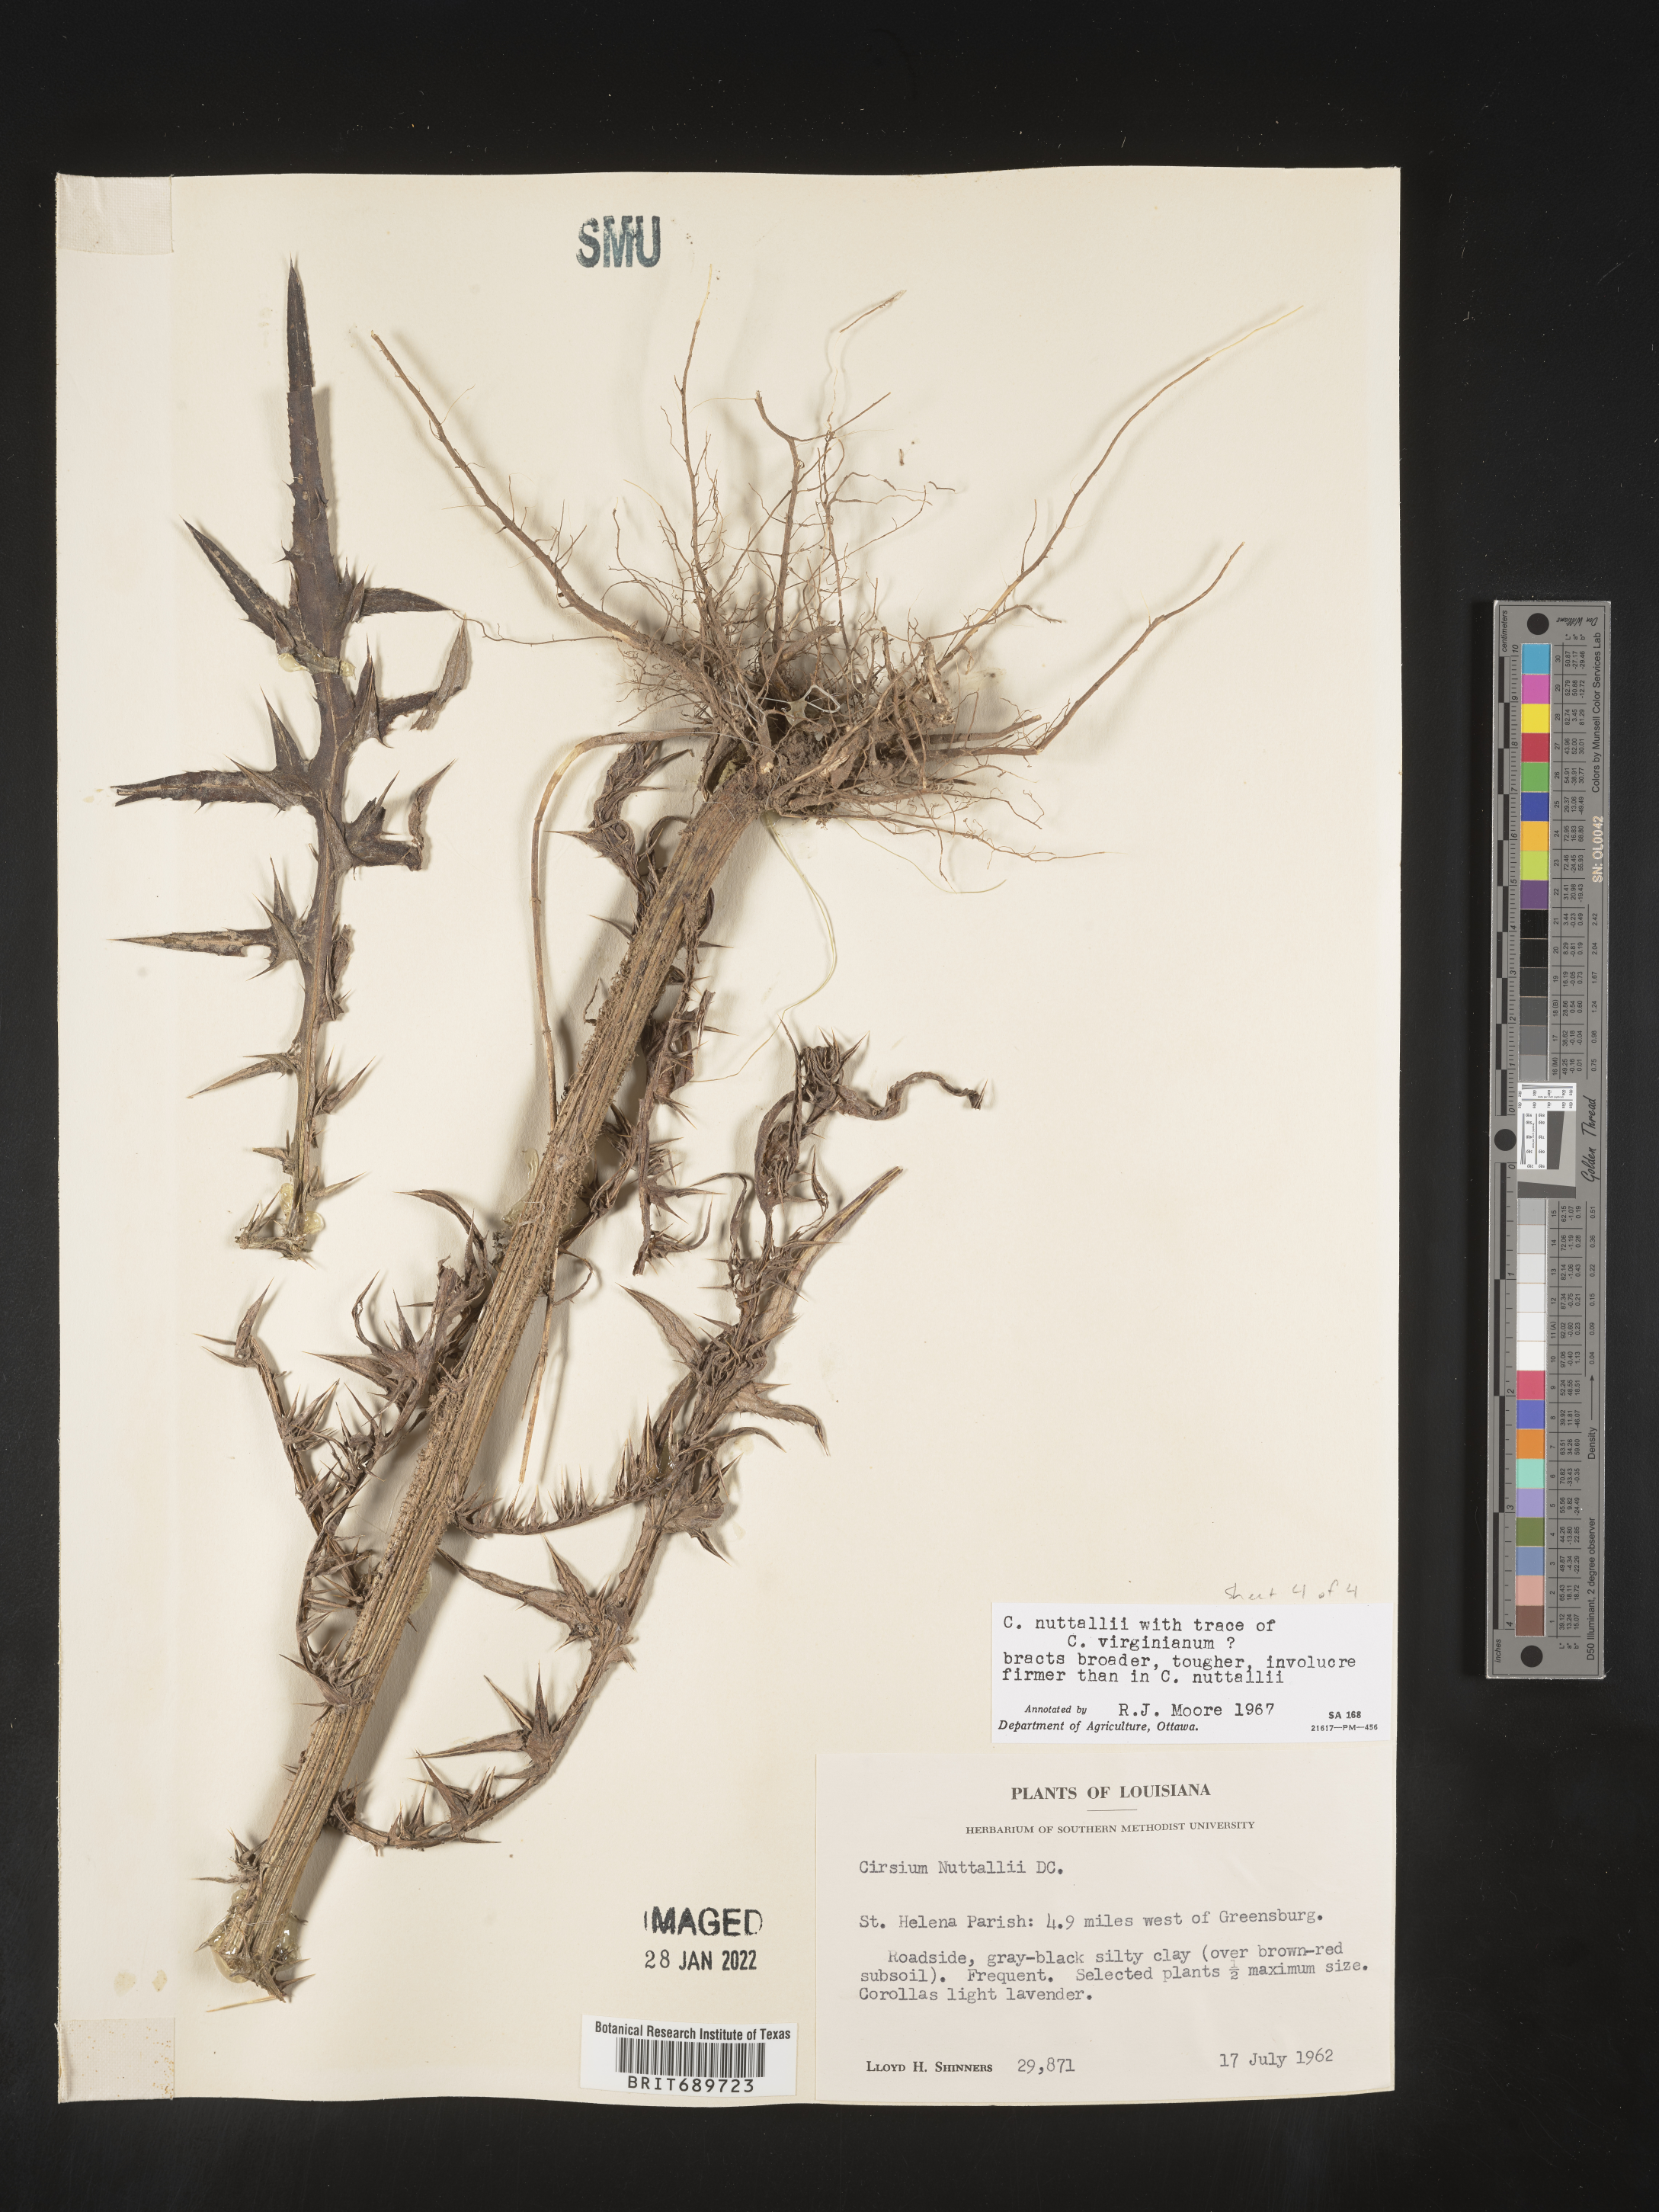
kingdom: Plantae
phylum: Tracheophyta
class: Magnoliopsida
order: Asterales
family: Asteraceae
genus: Cirsium
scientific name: Cirsium
